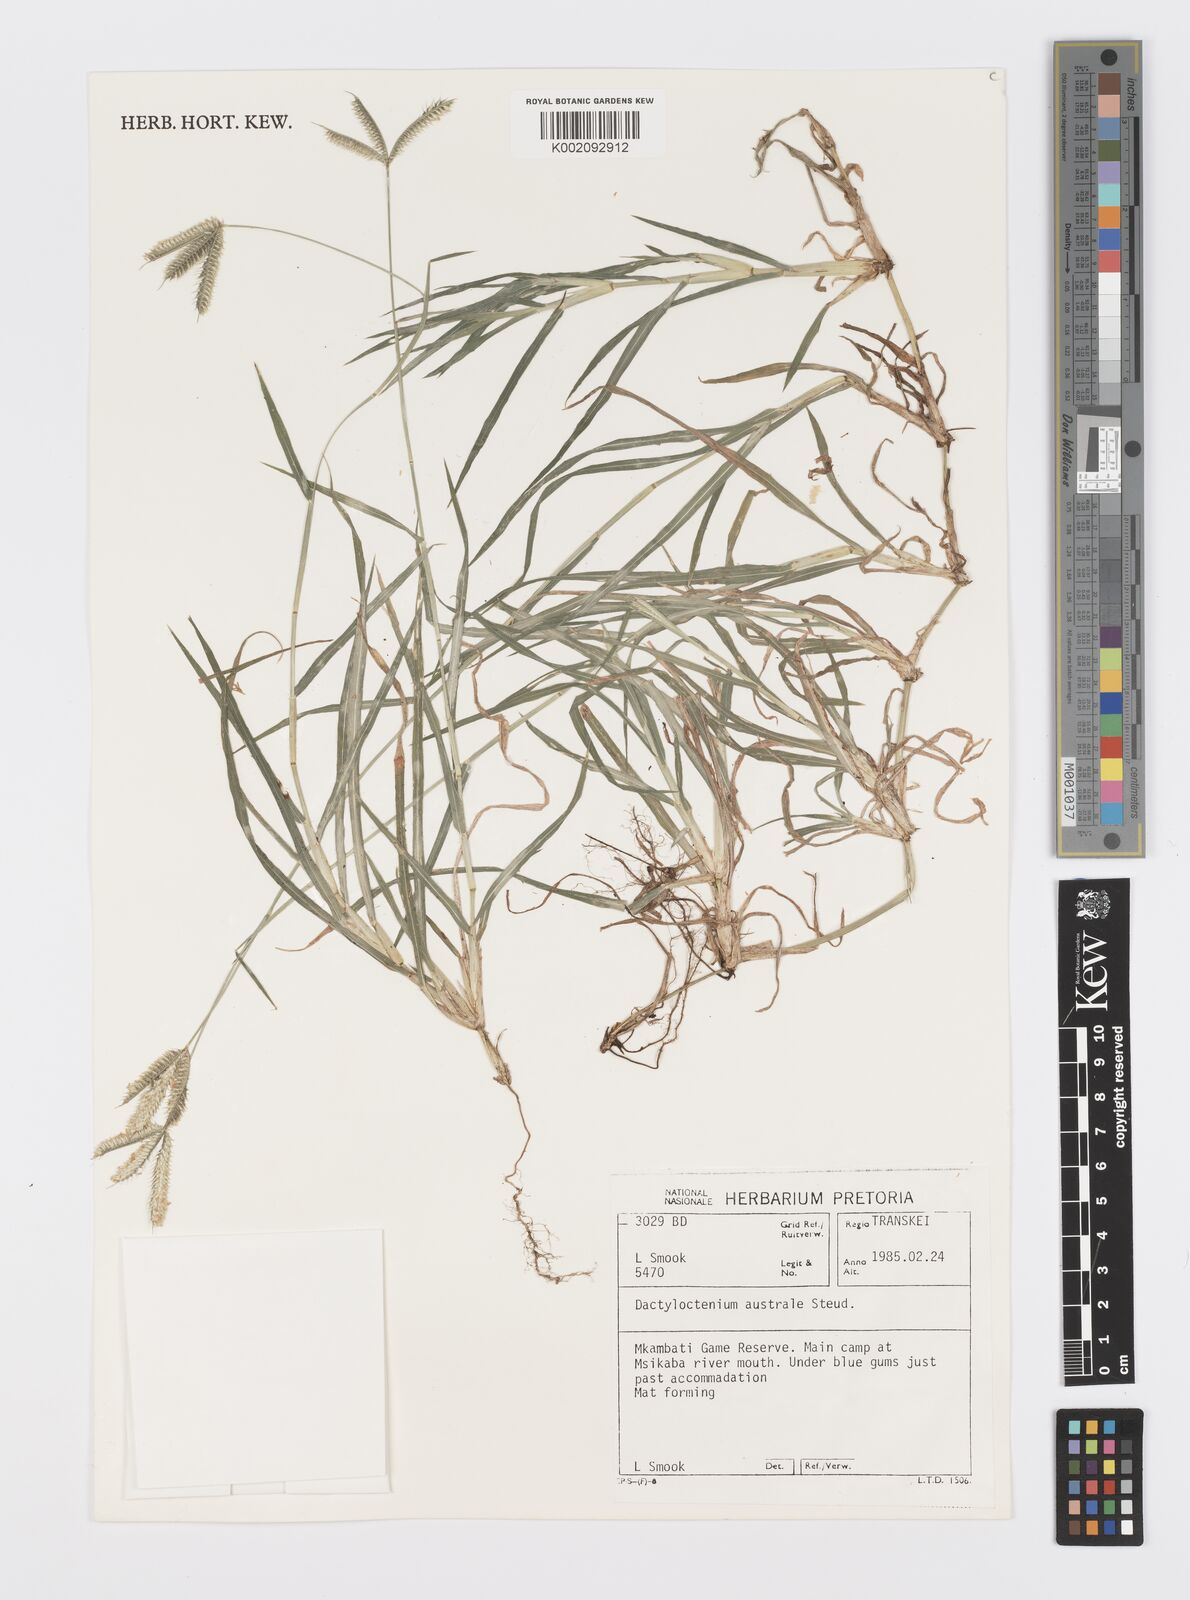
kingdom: Plantae
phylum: Tracheophyta
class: Liliopsida
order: Poales
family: Poaceae
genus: Dactyloctenium
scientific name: Dactyloctenium australe
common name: Durban grass
